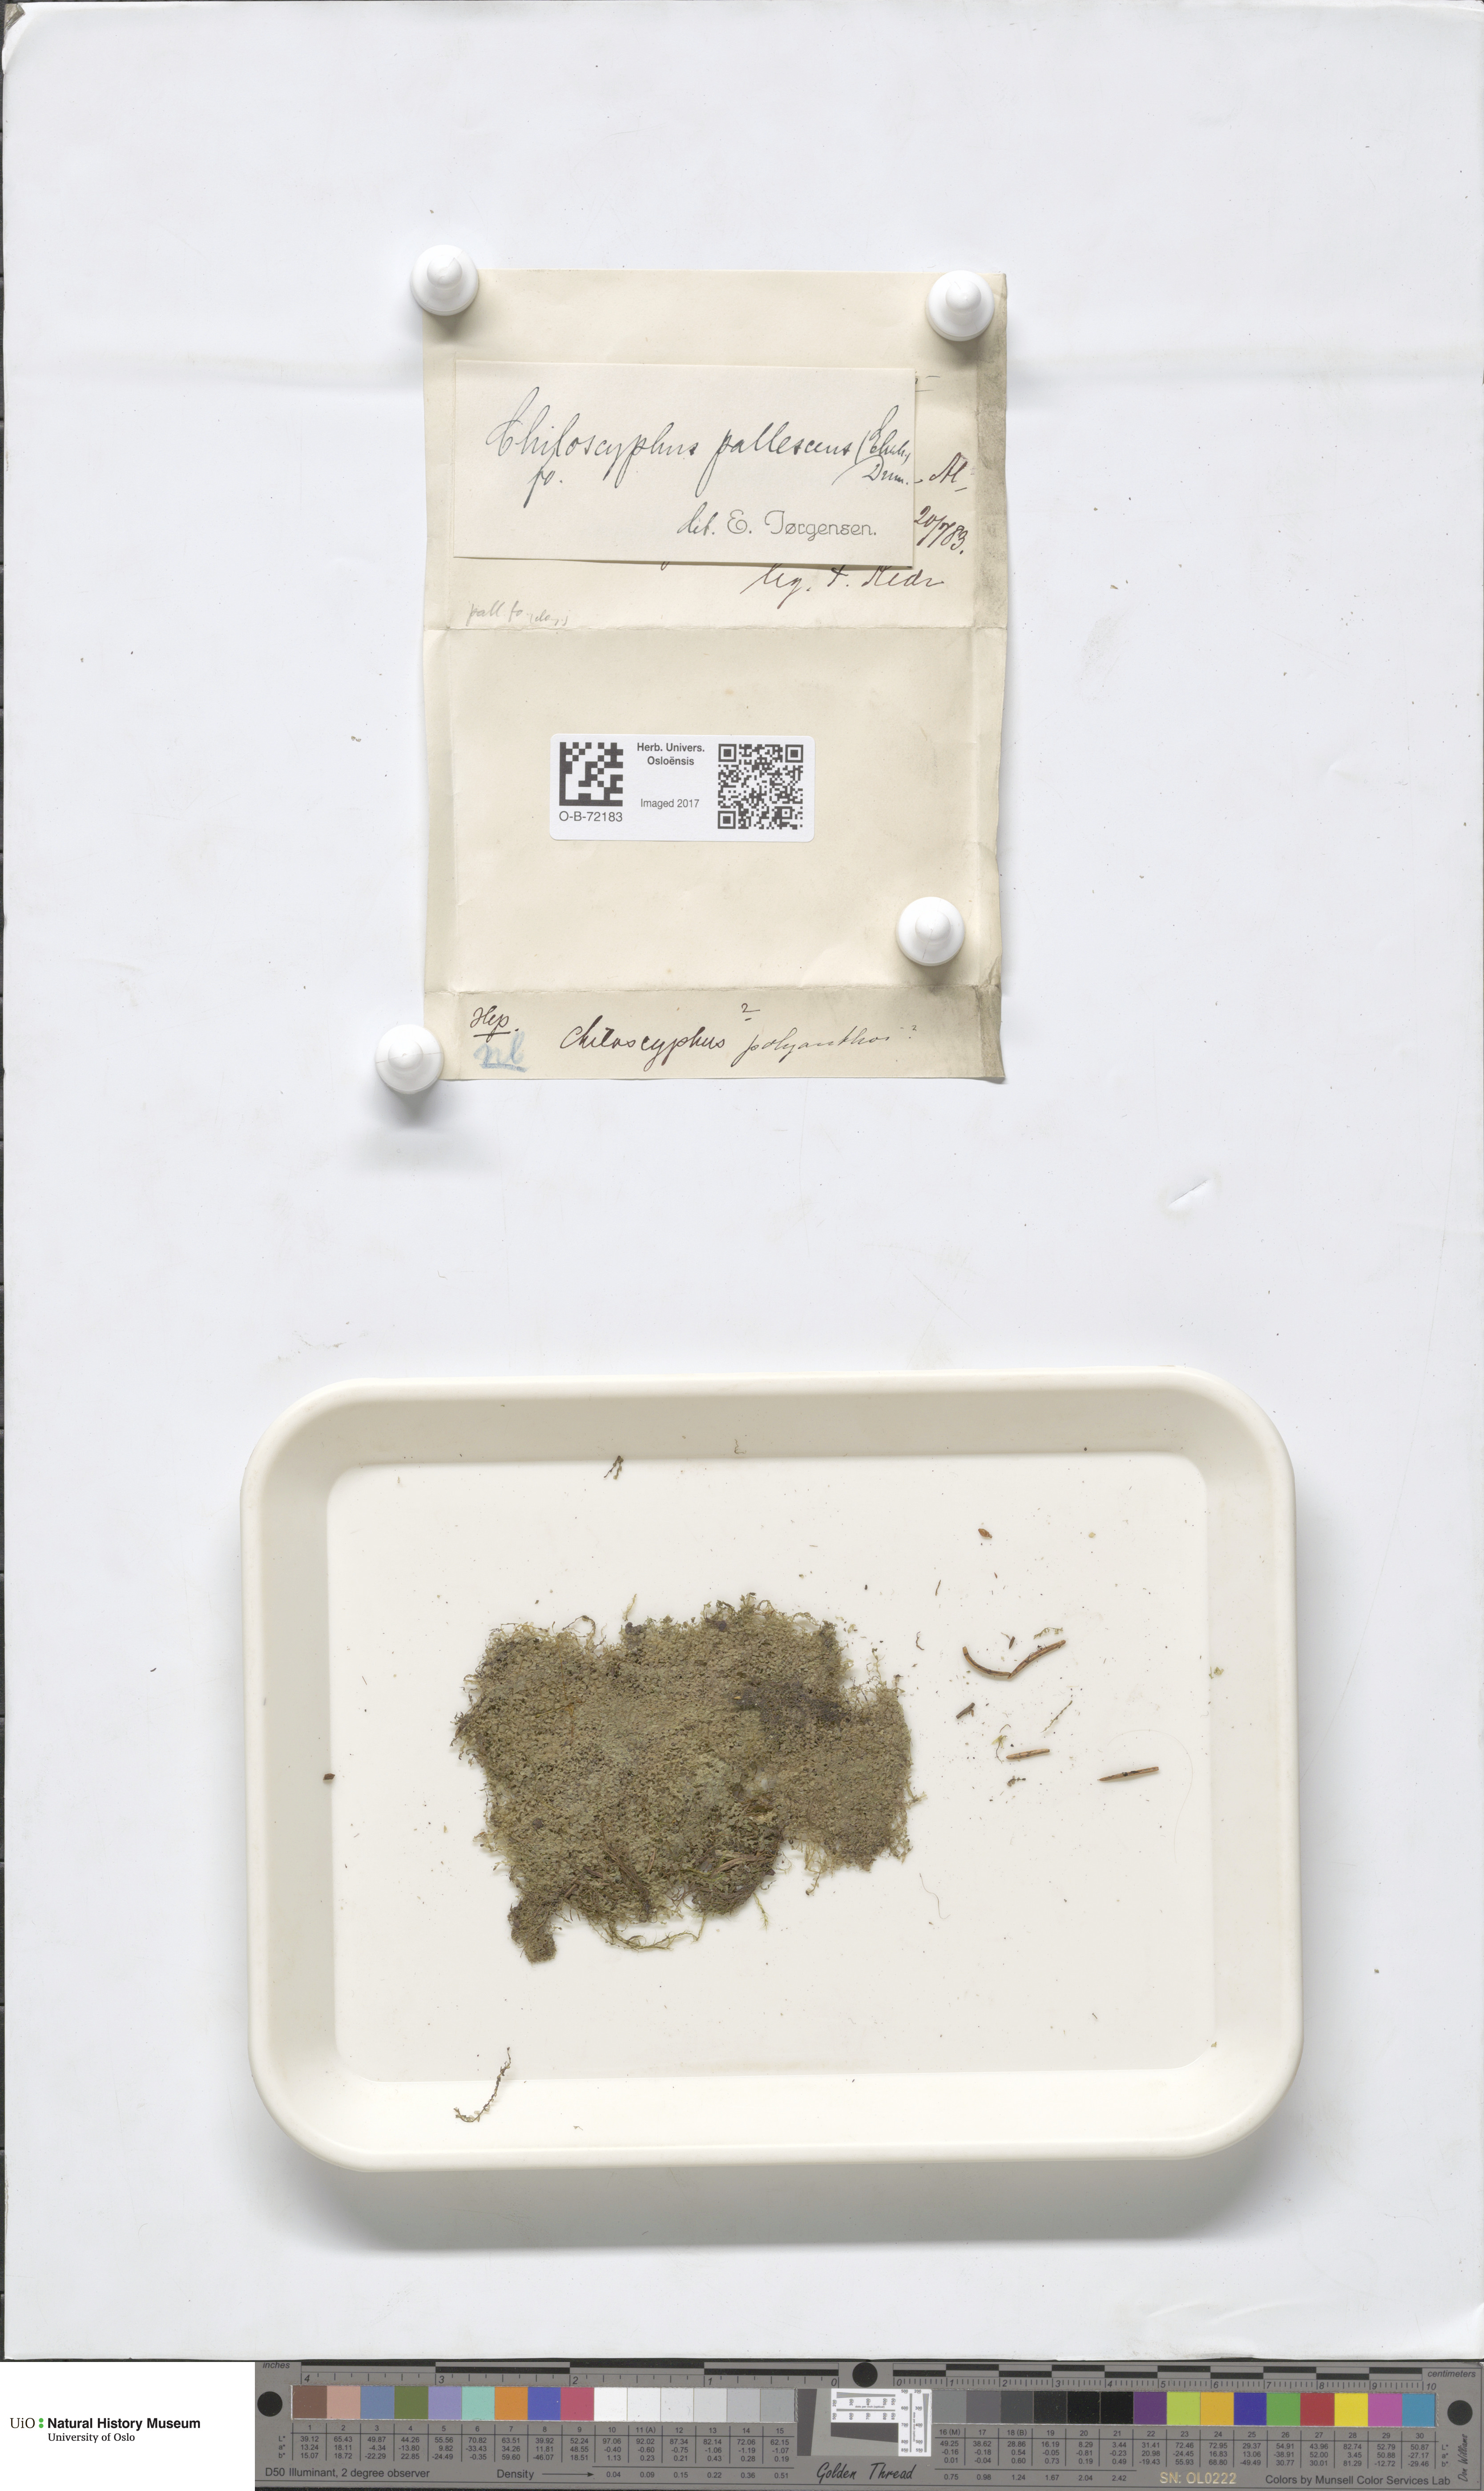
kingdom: Plantae
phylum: Marchantiophyta
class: Jungermanniopsida
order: Jungermanniales
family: Lophocoleaceae
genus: Chiloscyphus
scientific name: Chiloscyphus pallescens
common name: St winifrid's other moss
